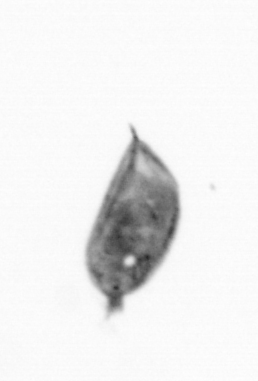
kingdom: Animalia
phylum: Arthropoda
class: Maxillopoda
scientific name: Maxillopoda
